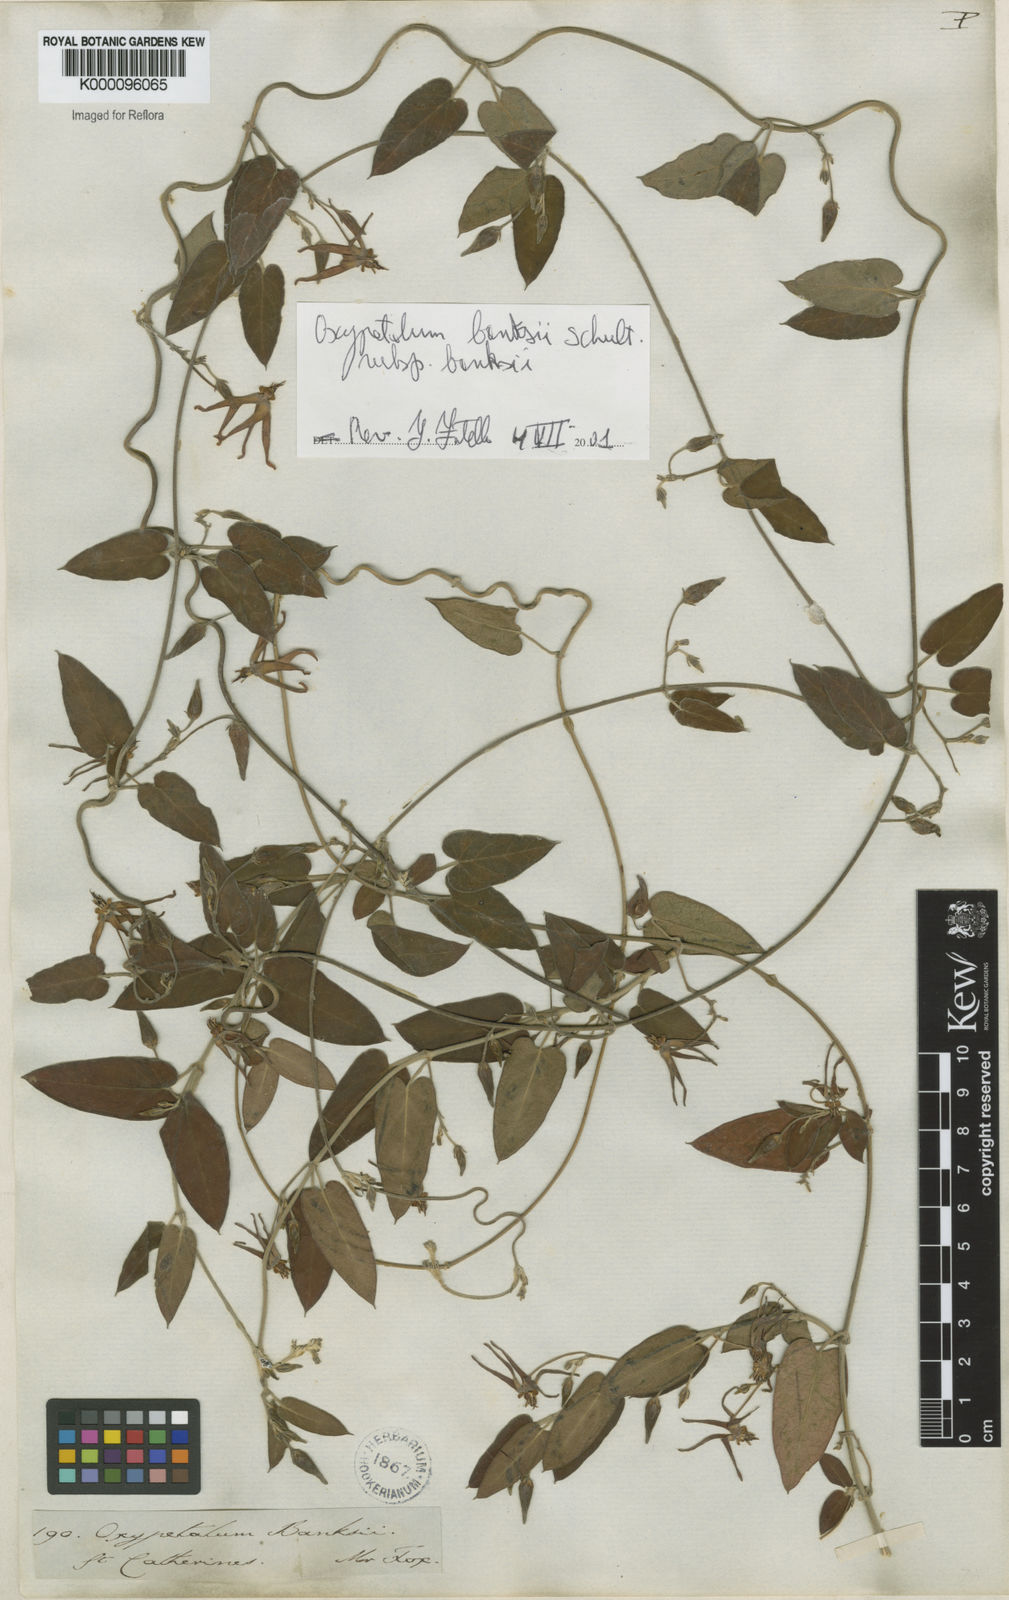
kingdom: Plantae
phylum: Tracheophyta
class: Magnoliopsida
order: Gentianales
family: Apocynaceae
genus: Oxypetalum
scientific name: Oxypetalum banksii
